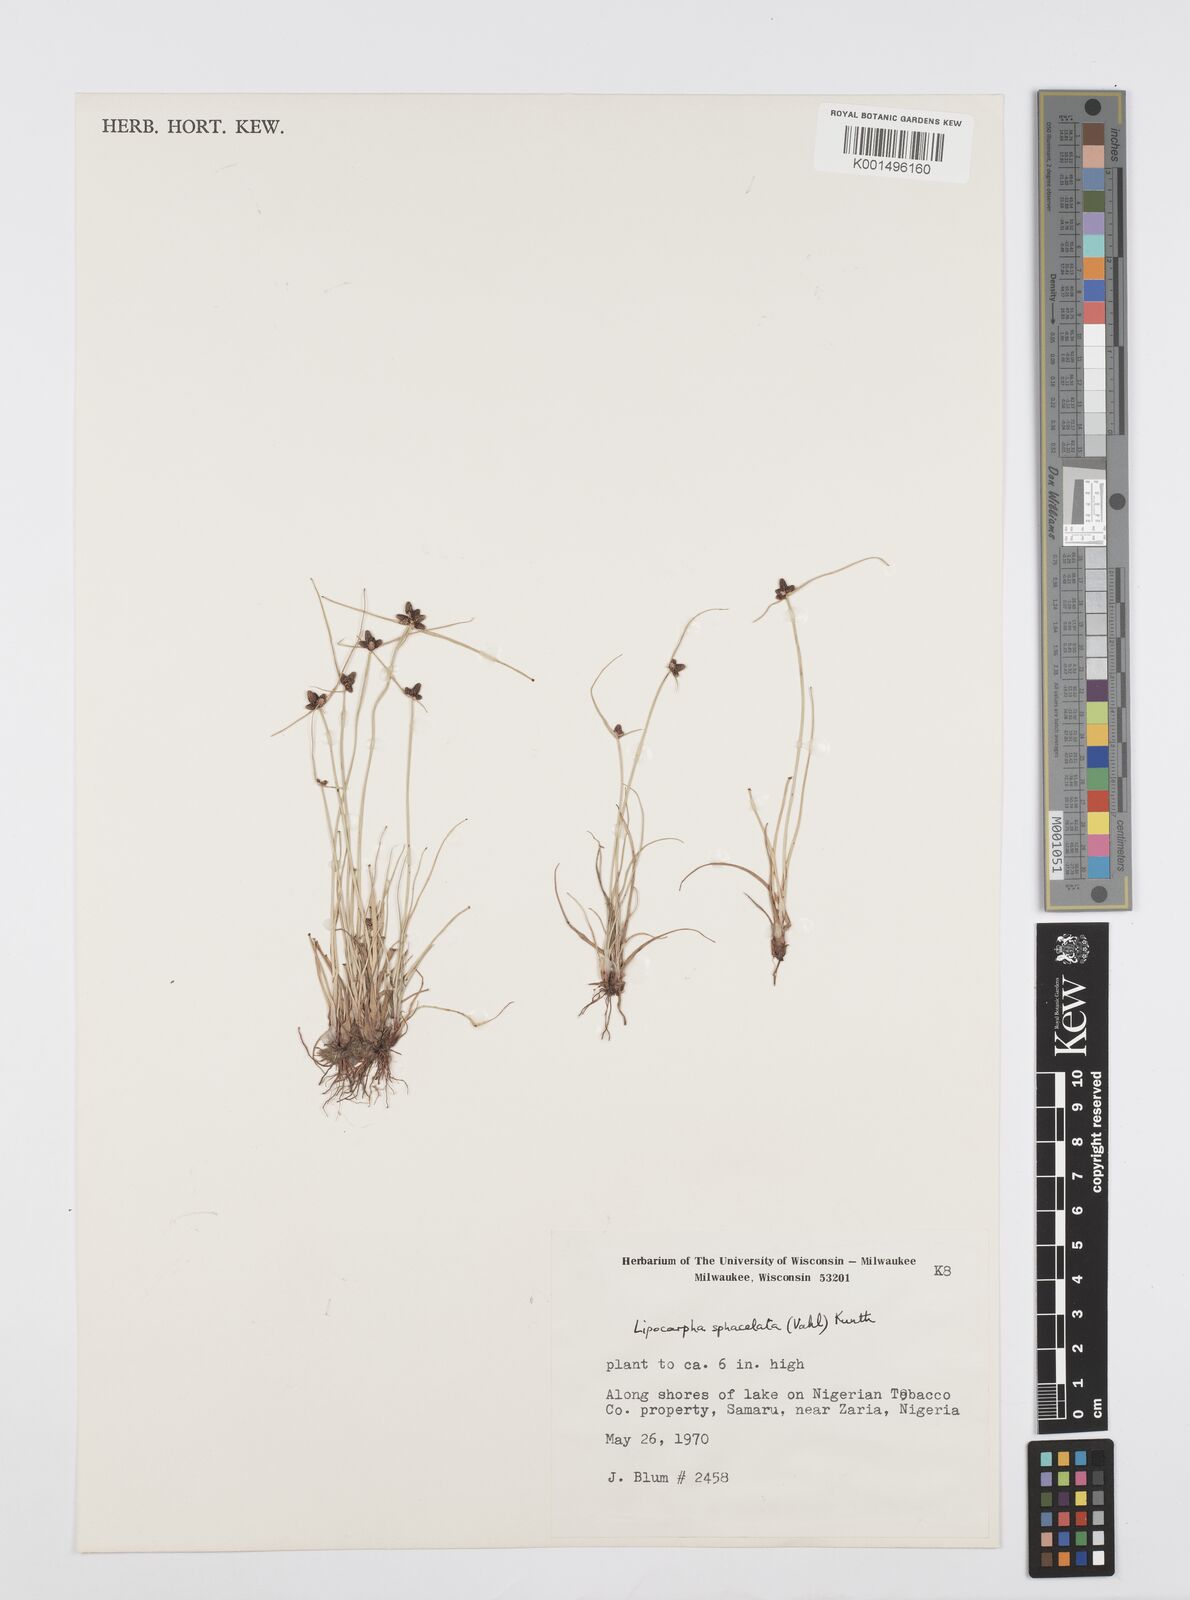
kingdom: Plantae
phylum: Tracheophyta
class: Liliopsida
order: Poales
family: Cyperaceae
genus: Cyperus
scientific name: Cyperus filiformis
